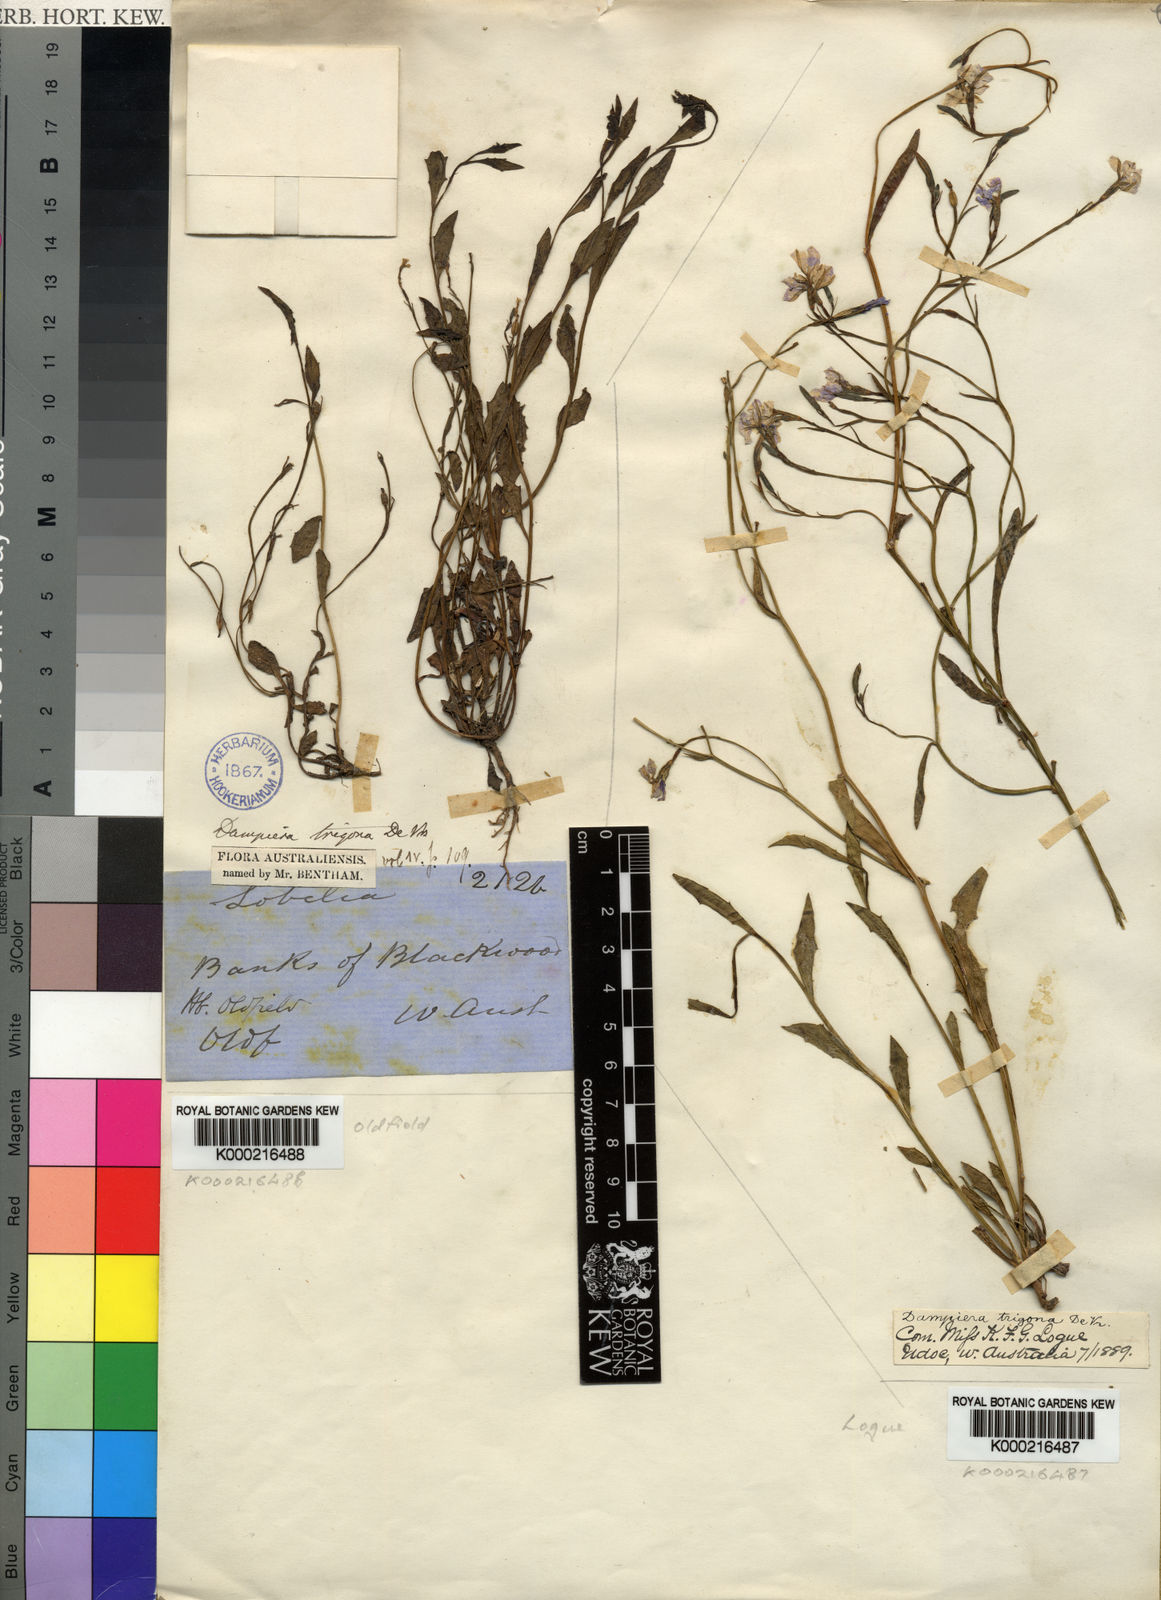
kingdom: Plantae
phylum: Tracheophyta
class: Magnoliopsida
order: Asterales
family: Goodeniaceae
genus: Dampiera
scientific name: Dampiera trigona
